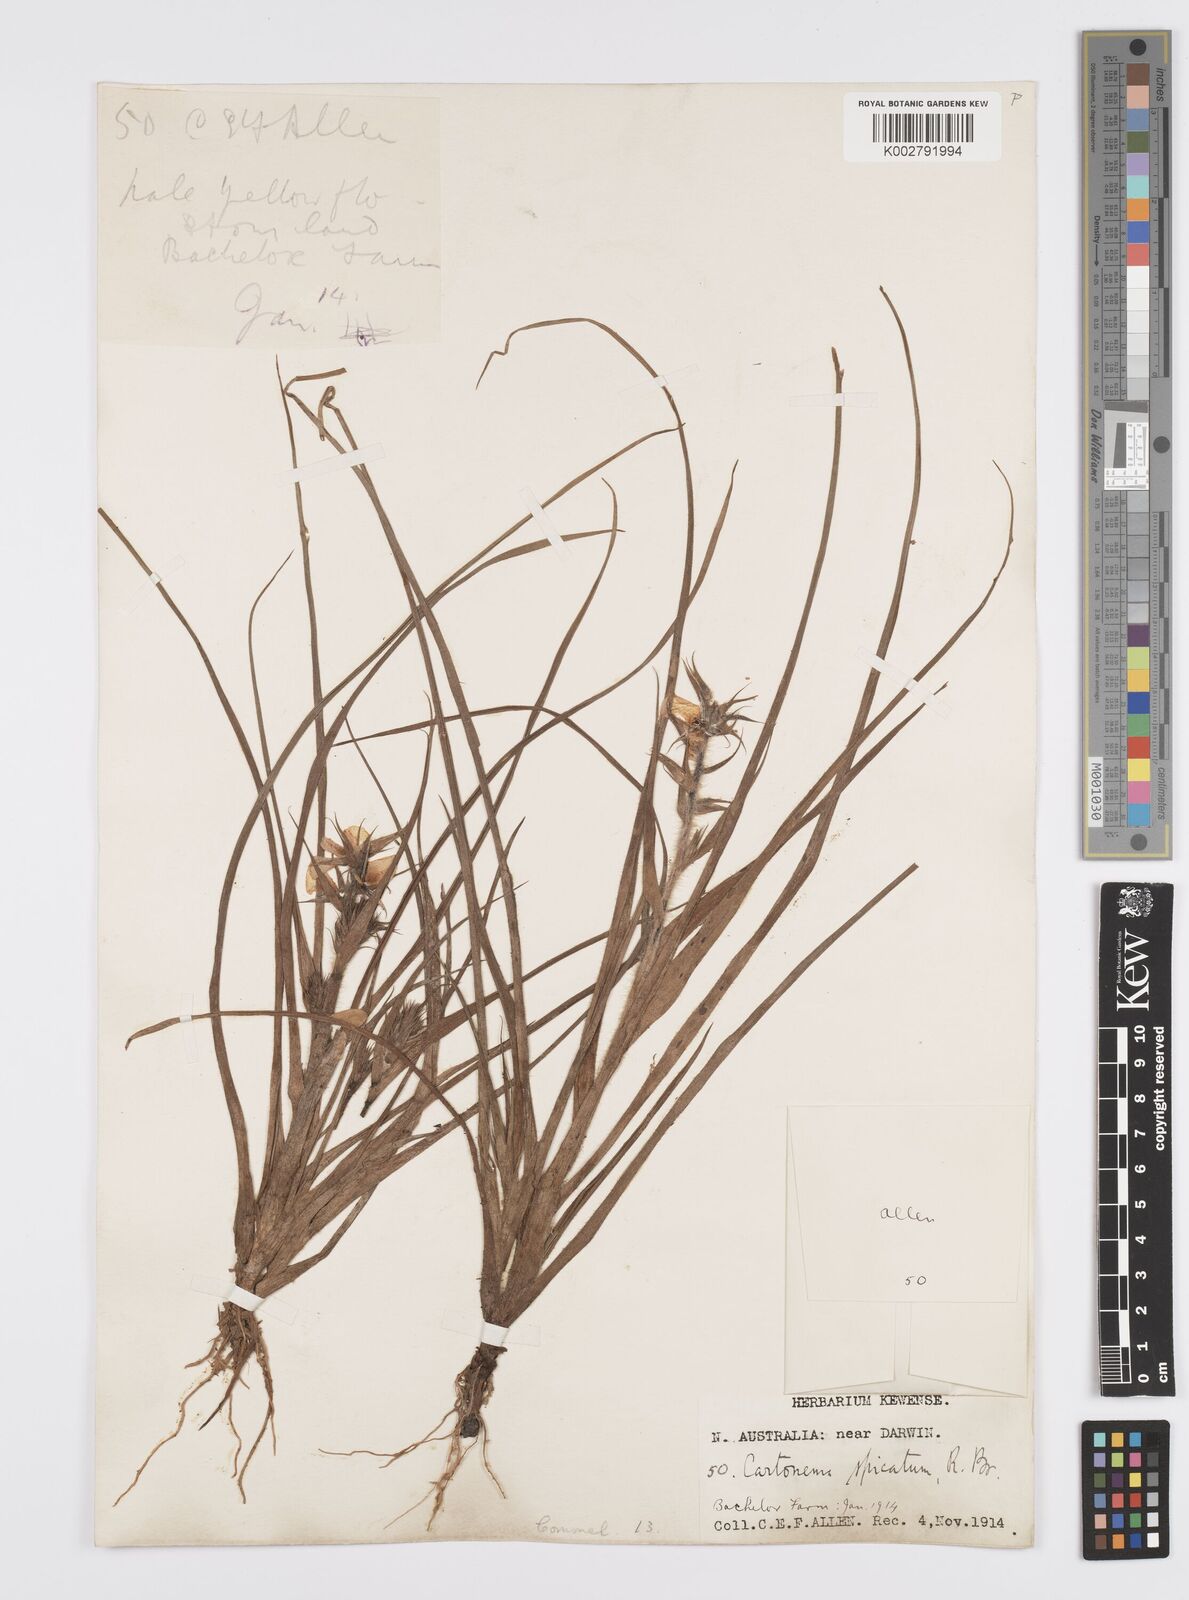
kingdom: Plantae
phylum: Tracheophyta
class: Liliopsida
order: Commelinales
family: Commelinaceae
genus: Cartonema
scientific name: Cartonema spicatum
